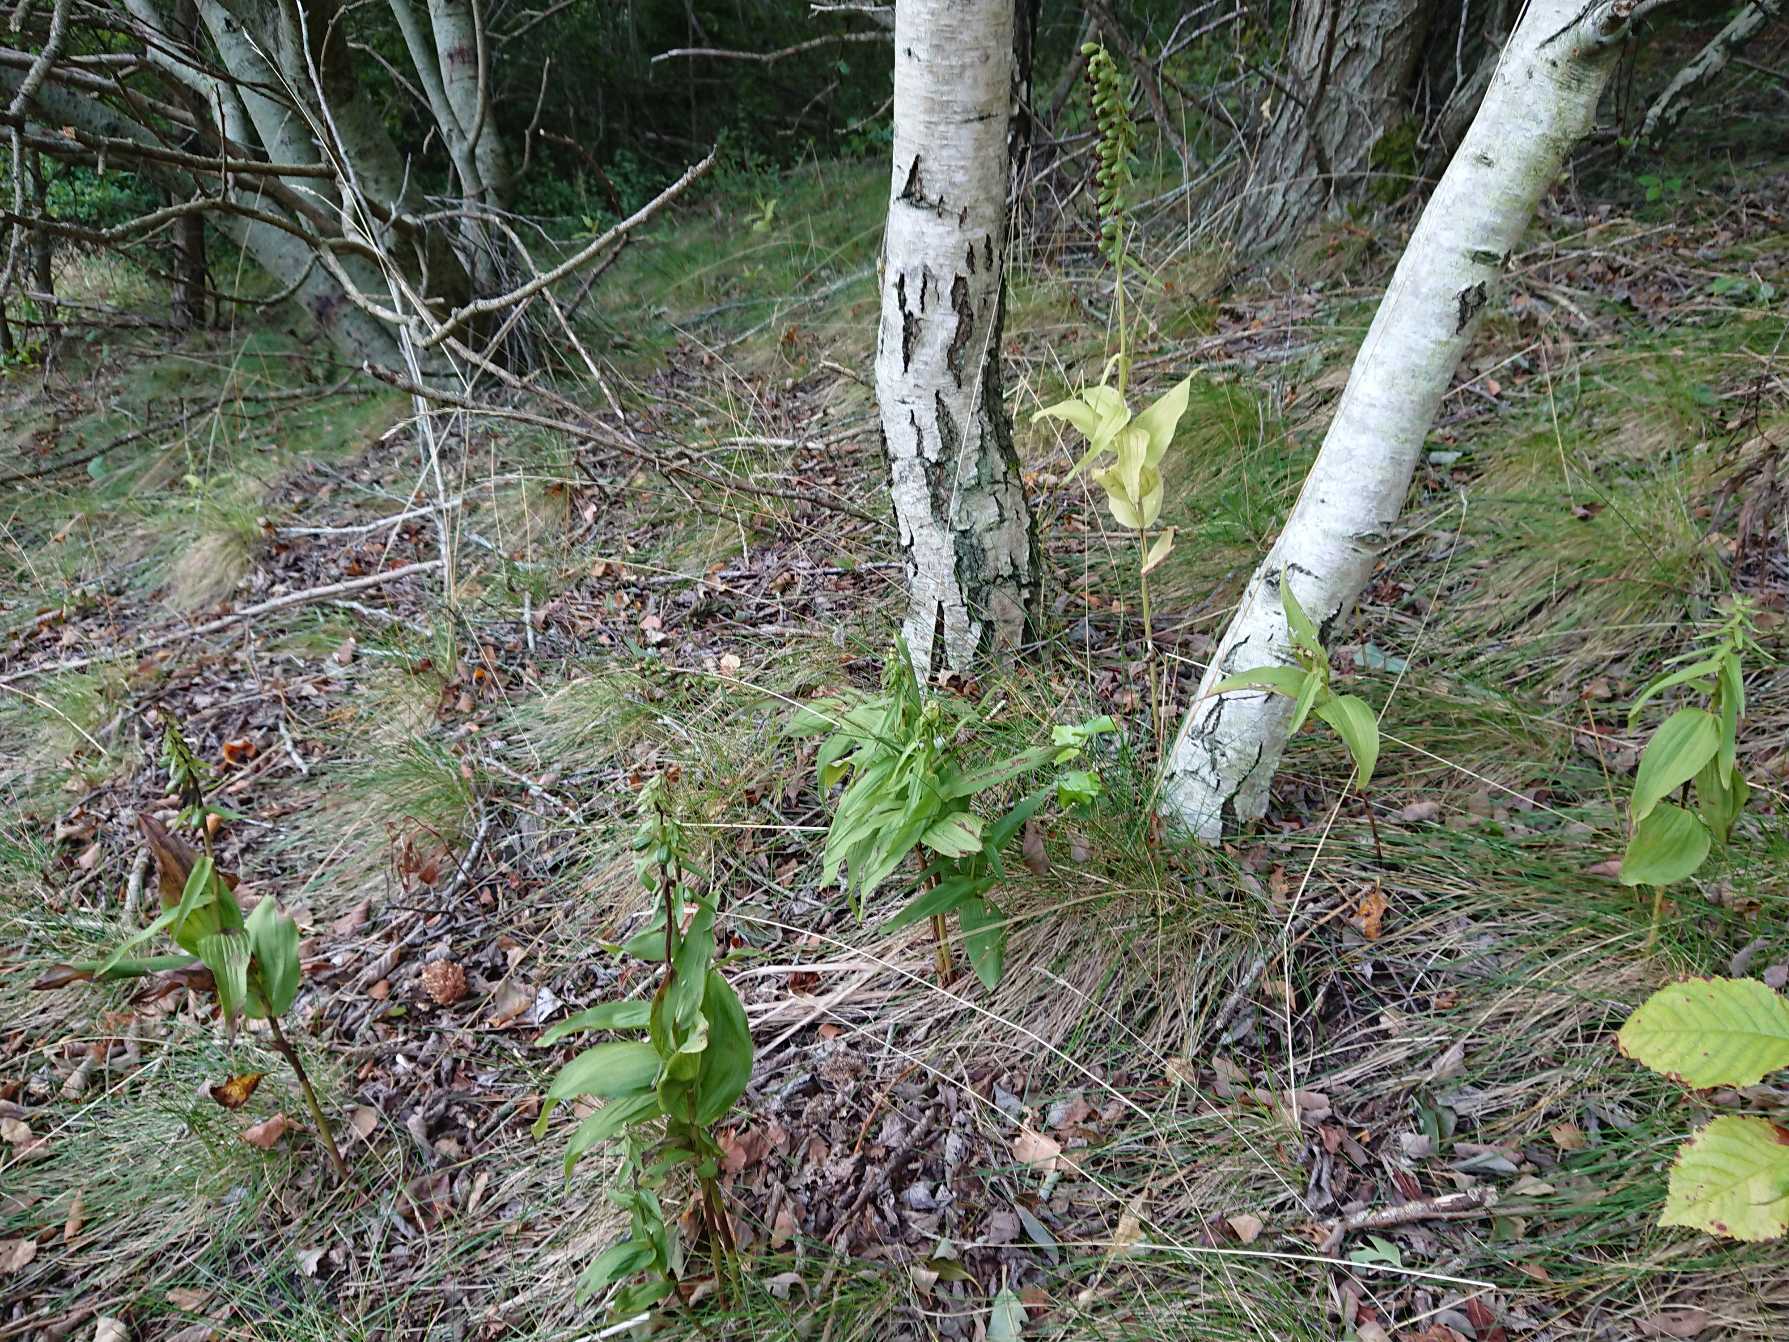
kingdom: Plantae
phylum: Tracheophyta
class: Liliopsida
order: Asparagales
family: Orchidaceae
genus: Epipactis
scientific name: Epipactis helleborine
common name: Skov-hullæbe
